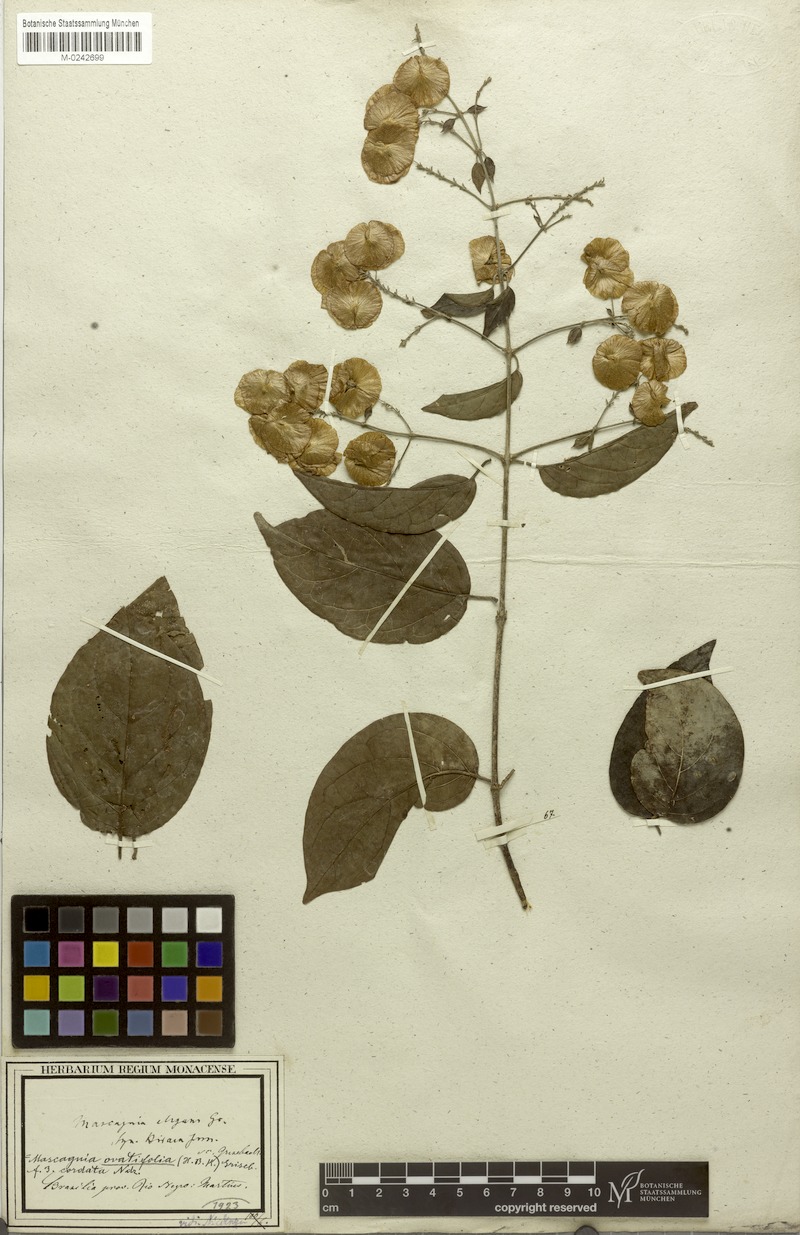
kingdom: Plantae
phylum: Tracheophyta
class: Magnoliopsida
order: Malpighiales
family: Malpighiaceae
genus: Mascagnia
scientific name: Mascagnia divaricata
